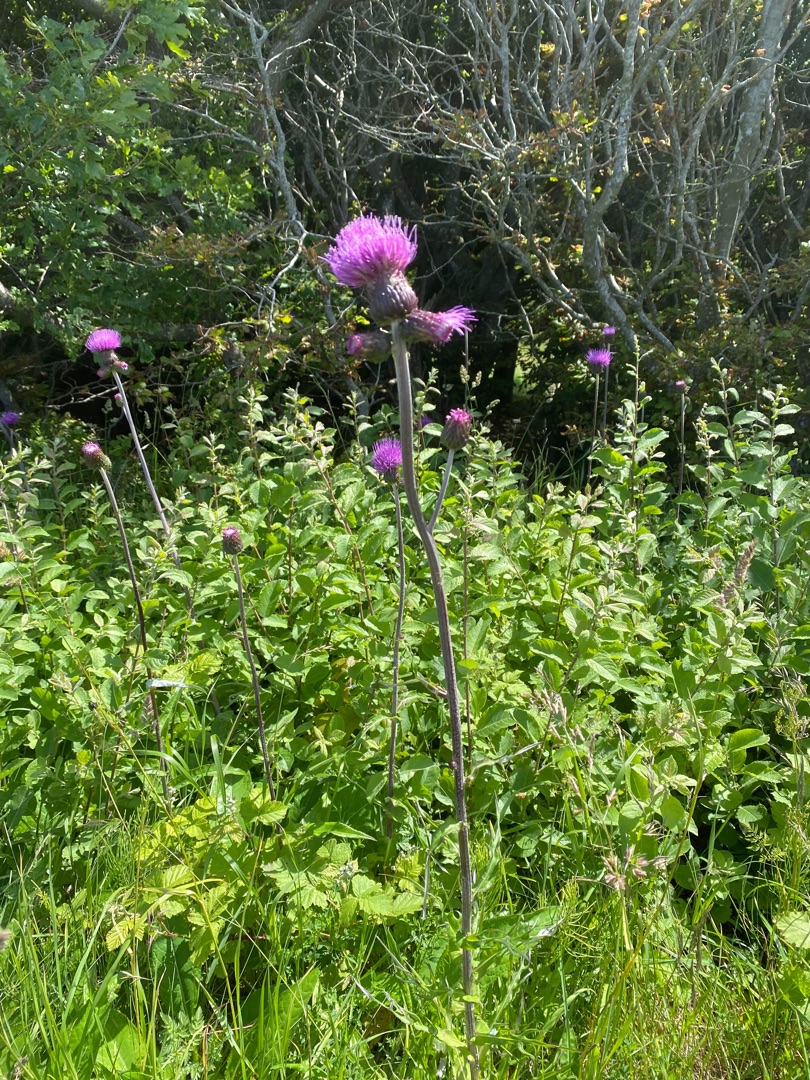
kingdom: Plantae
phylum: Tracheophyta
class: Magnoliopsida
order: Asterales
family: Asteraceae
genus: Cirsium
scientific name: Cirsium heterophyllum
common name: Forskelligbladet tidsel
